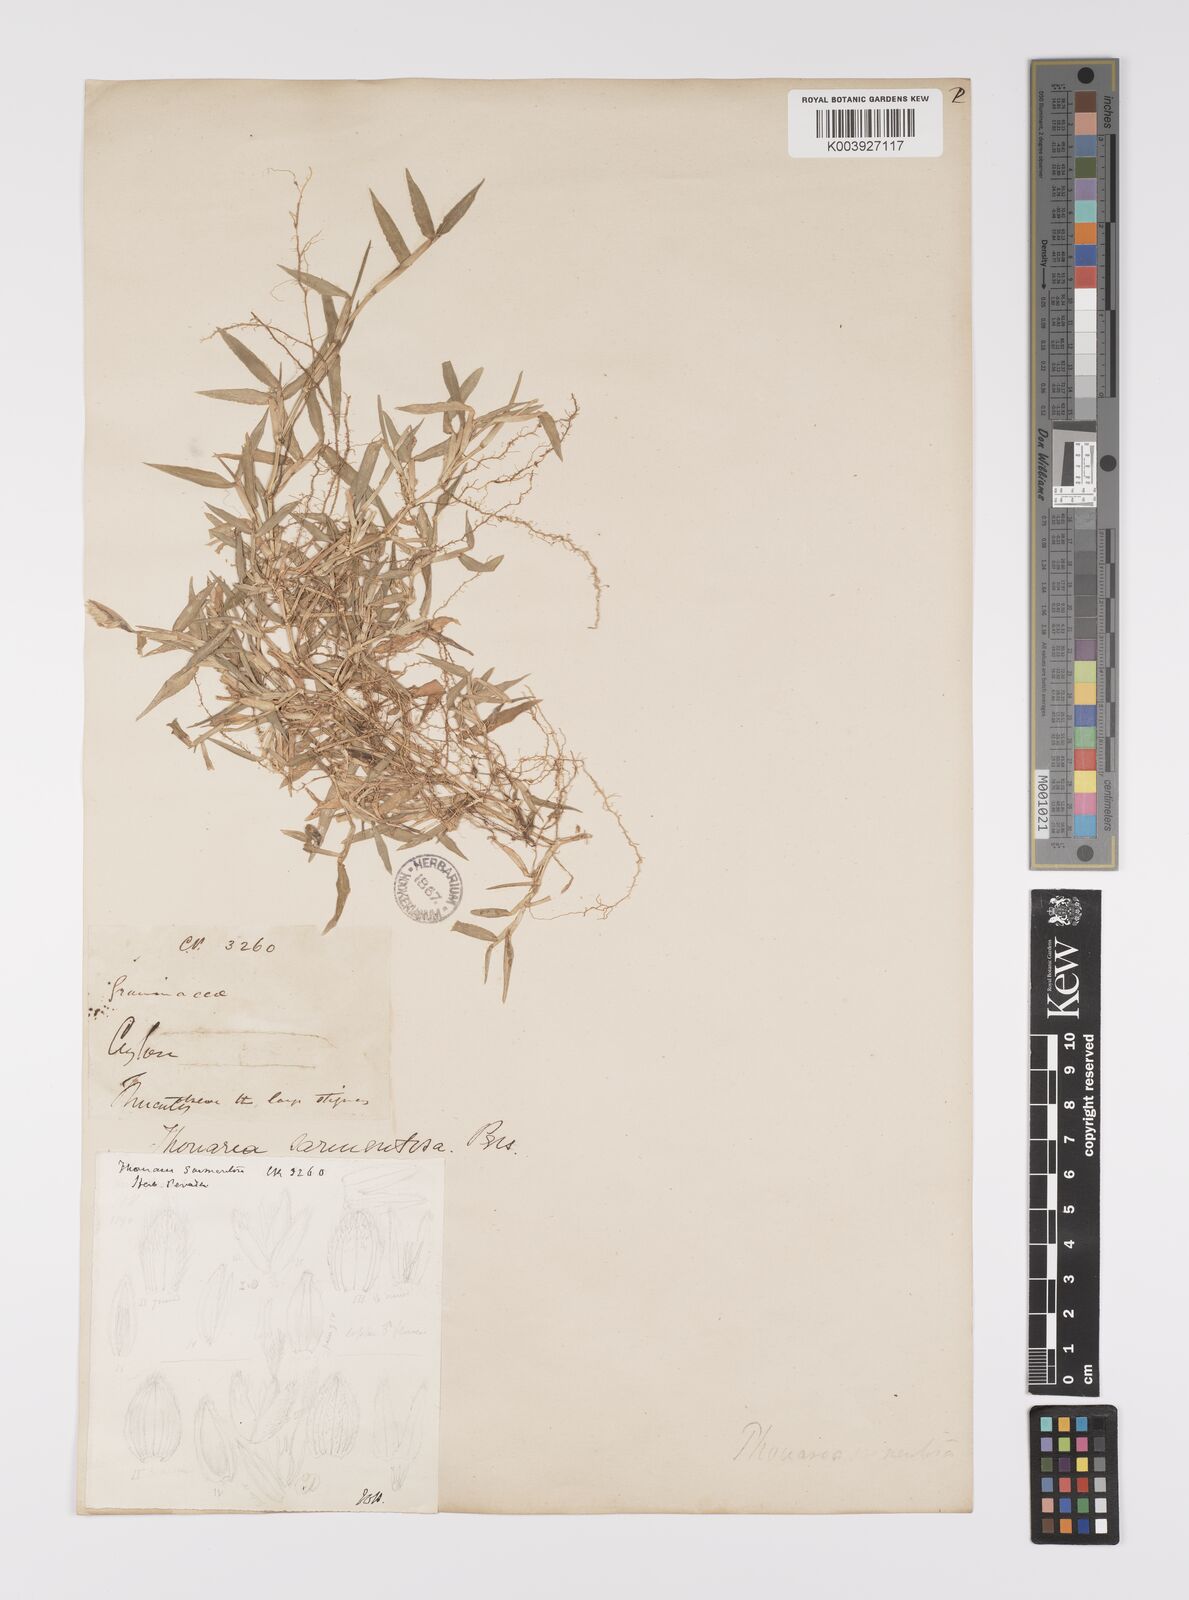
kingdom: Plantae
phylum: Tracheophyta
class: Liliopsida
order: Poales
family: Poaceae
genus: Thuarea
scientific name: Thuarea involuta
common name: Tropical beach grass
